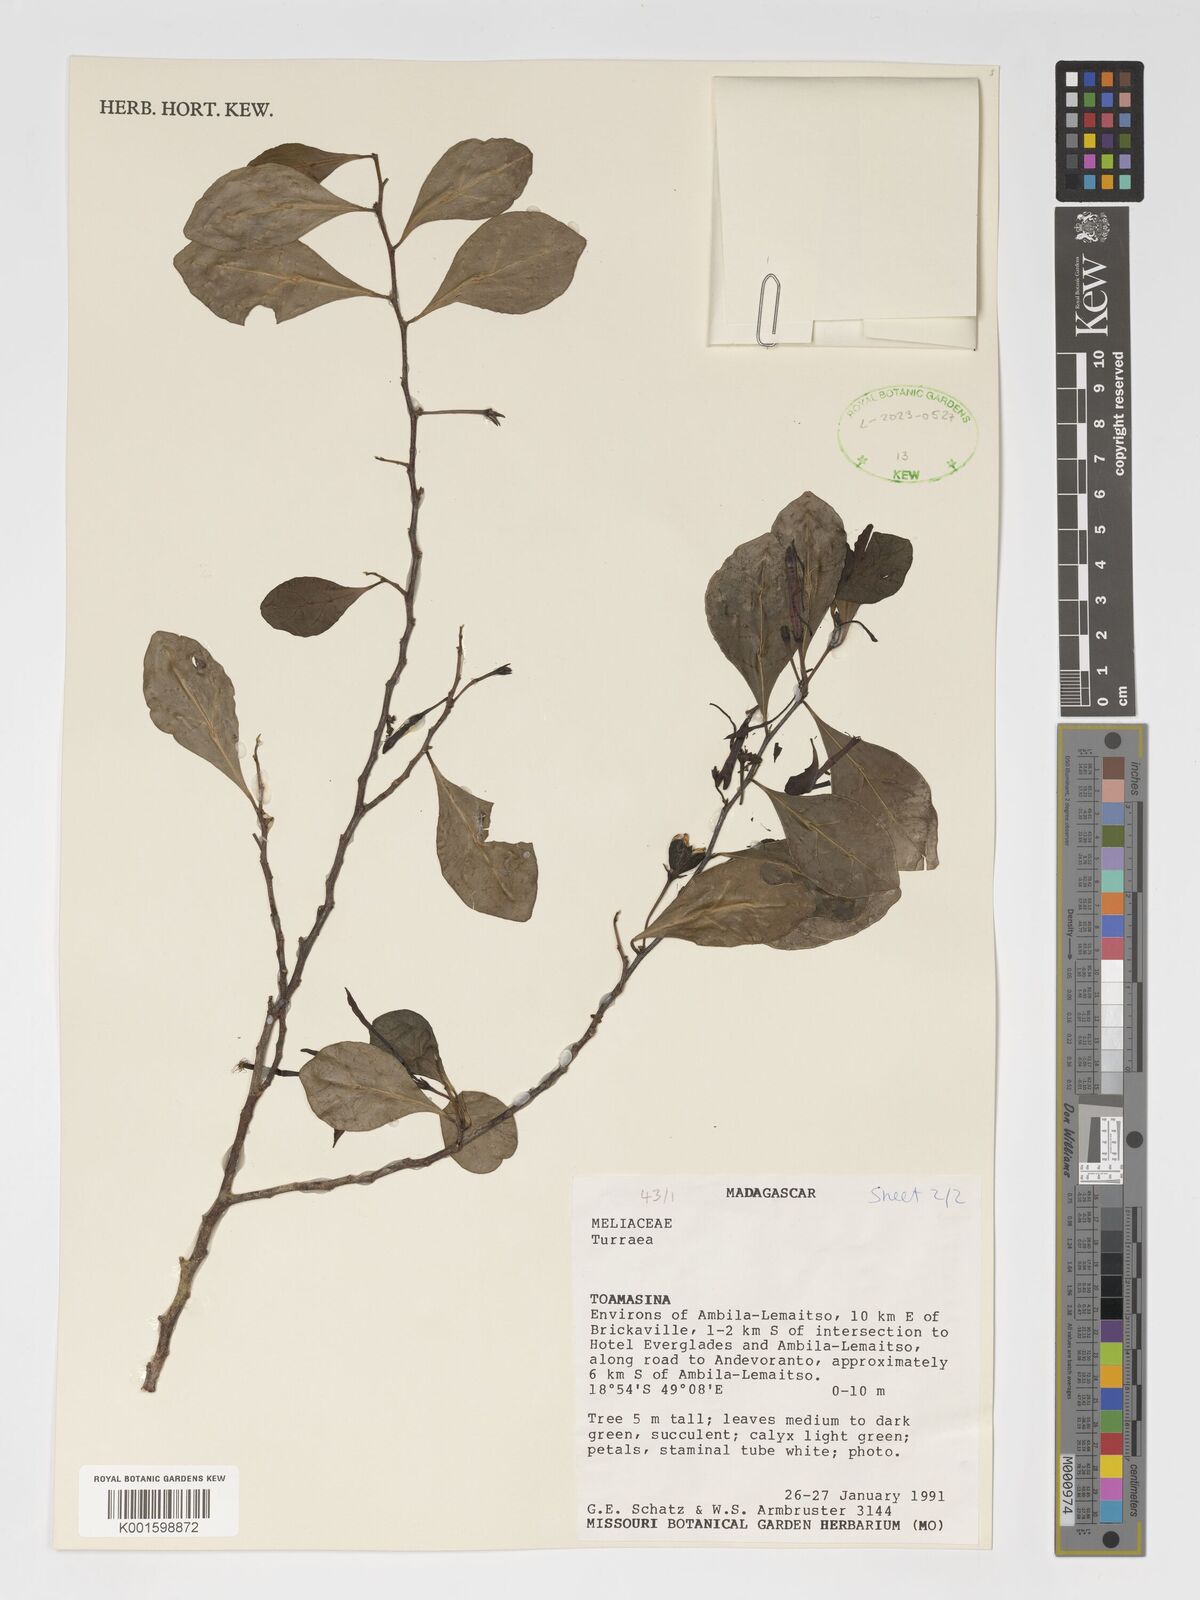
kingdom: Plantae
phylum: Tracheophyta
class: Magnoliopsida
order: Sapindales
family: Meliaceae
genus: Turraea
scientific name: Turraea
